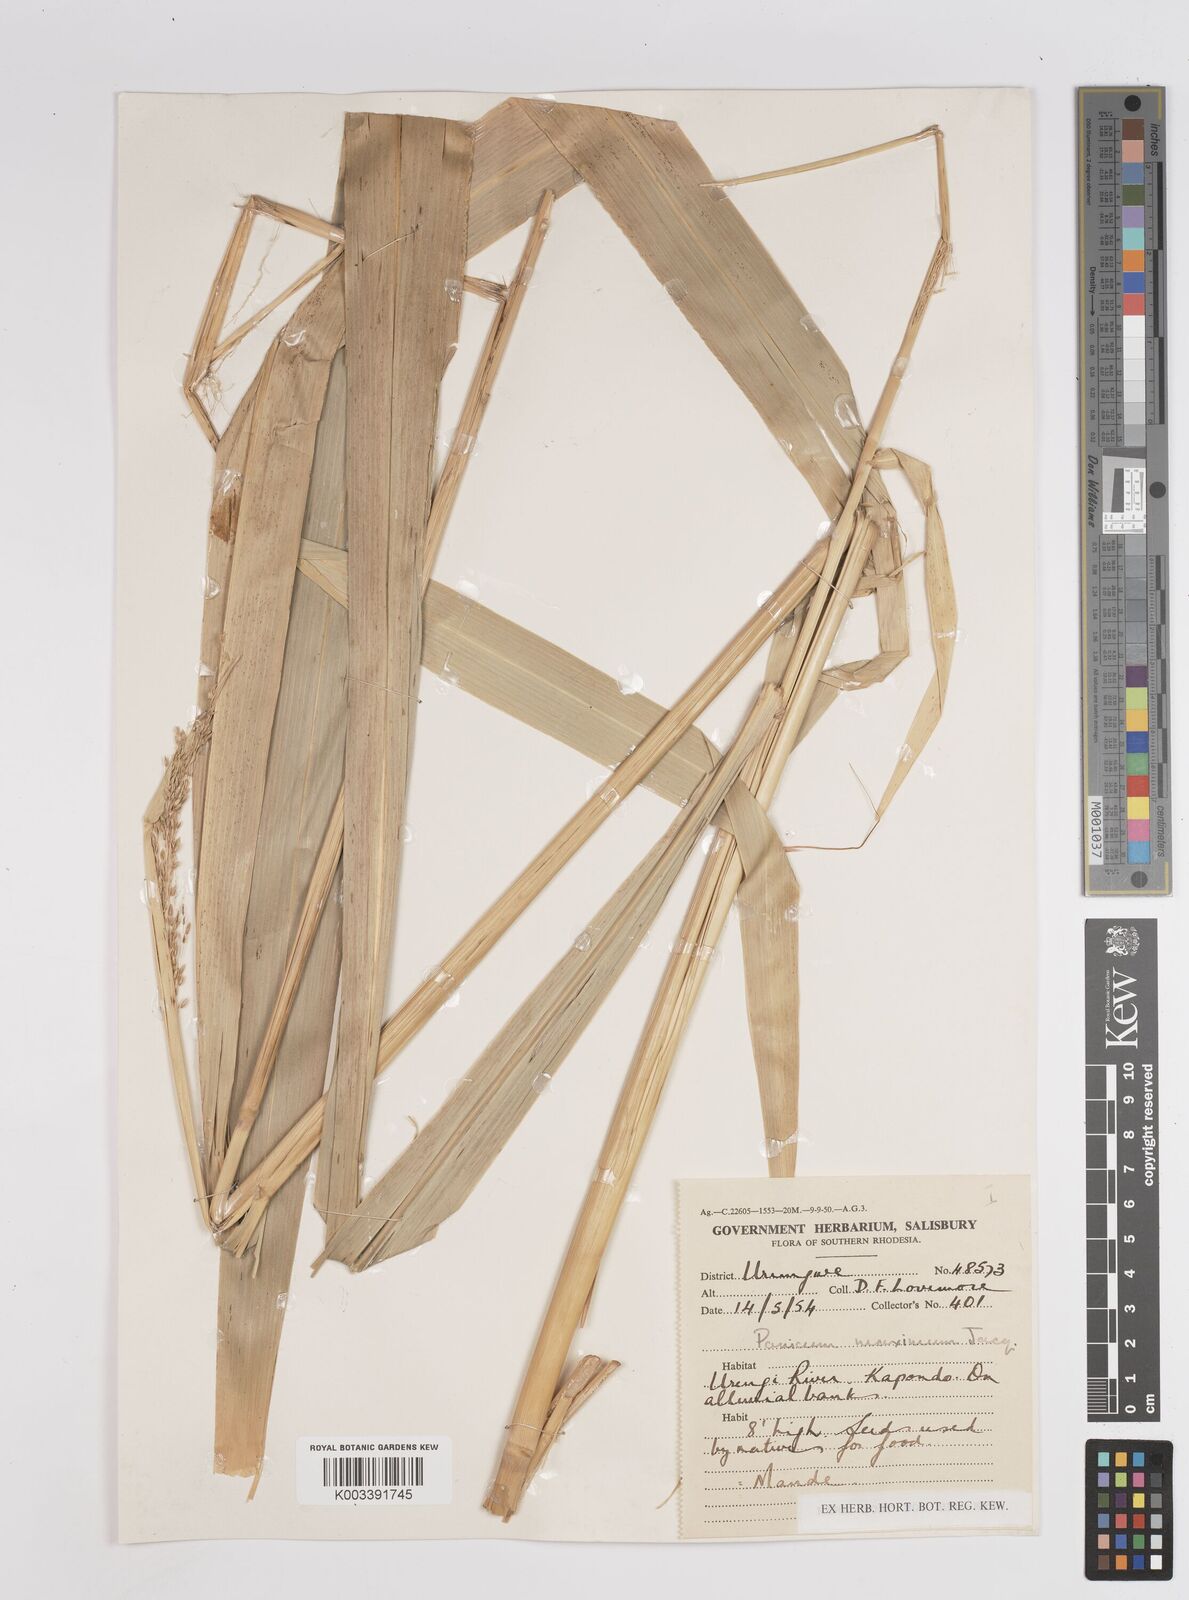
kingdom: Plantae
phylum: Tracheophyta
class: Liliopsida
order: Poales
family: Poaceae
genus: Megathyrsus
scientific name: Megathyrsus maximus
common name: Guineagrass
